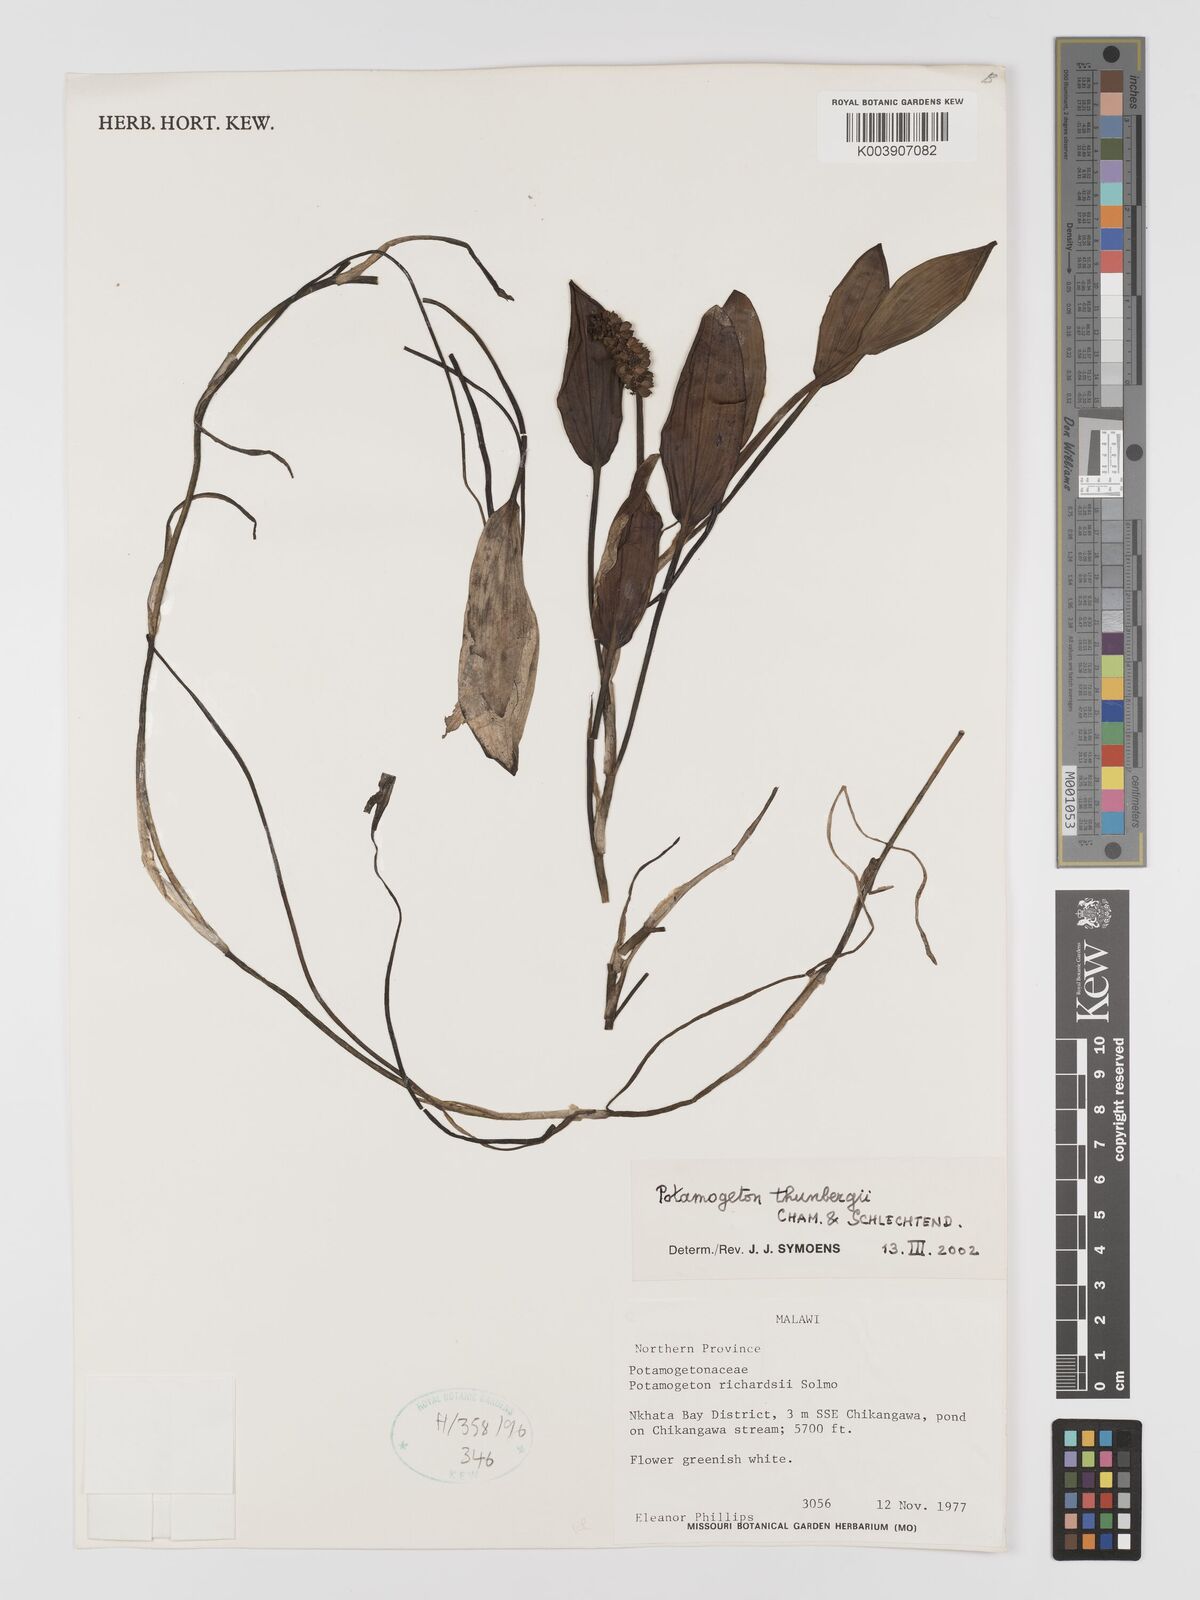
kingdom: Plantae
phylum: Tracheophyta
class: Liliopsida
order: Alismatales
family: Potamogetonaceae
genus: Potamogeton
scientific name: Potamogeton nodosus
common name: Loddon pondweed
